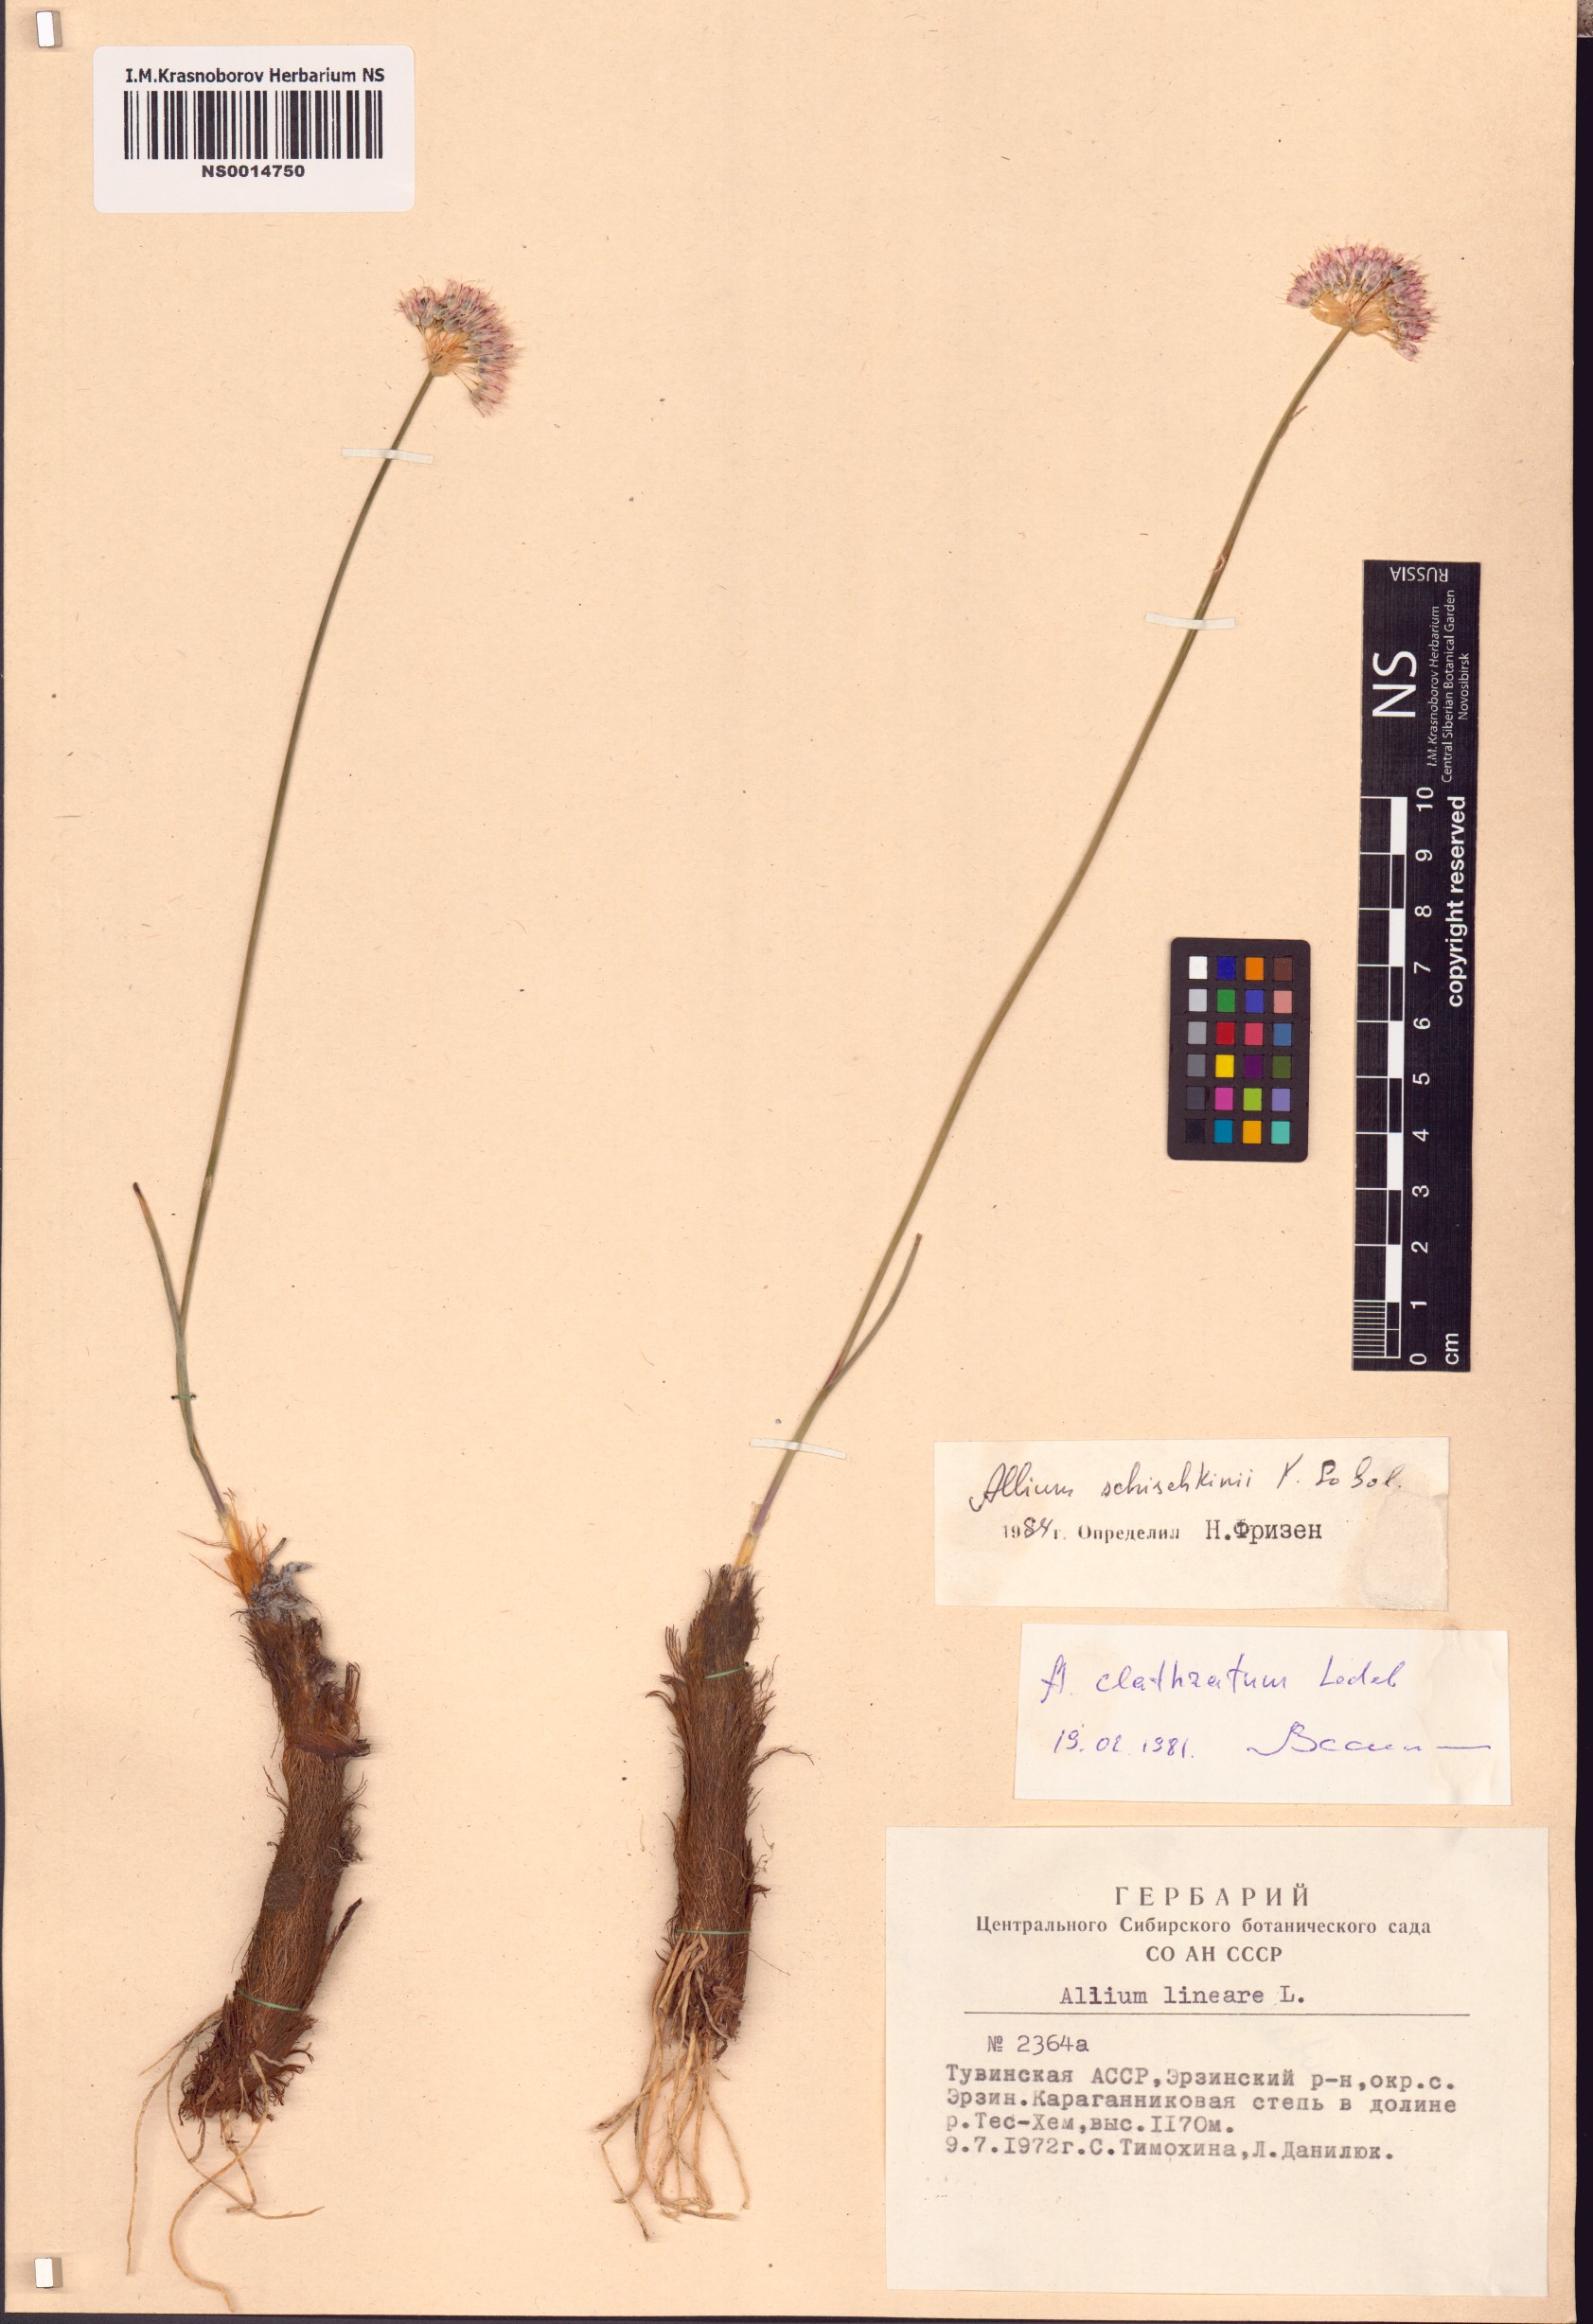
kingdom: Plantae
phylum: Tracheophyta
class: Liliopsida
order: Asparagales
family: Amaryllidaceae
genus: Allium
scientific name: Allium schischkinii
